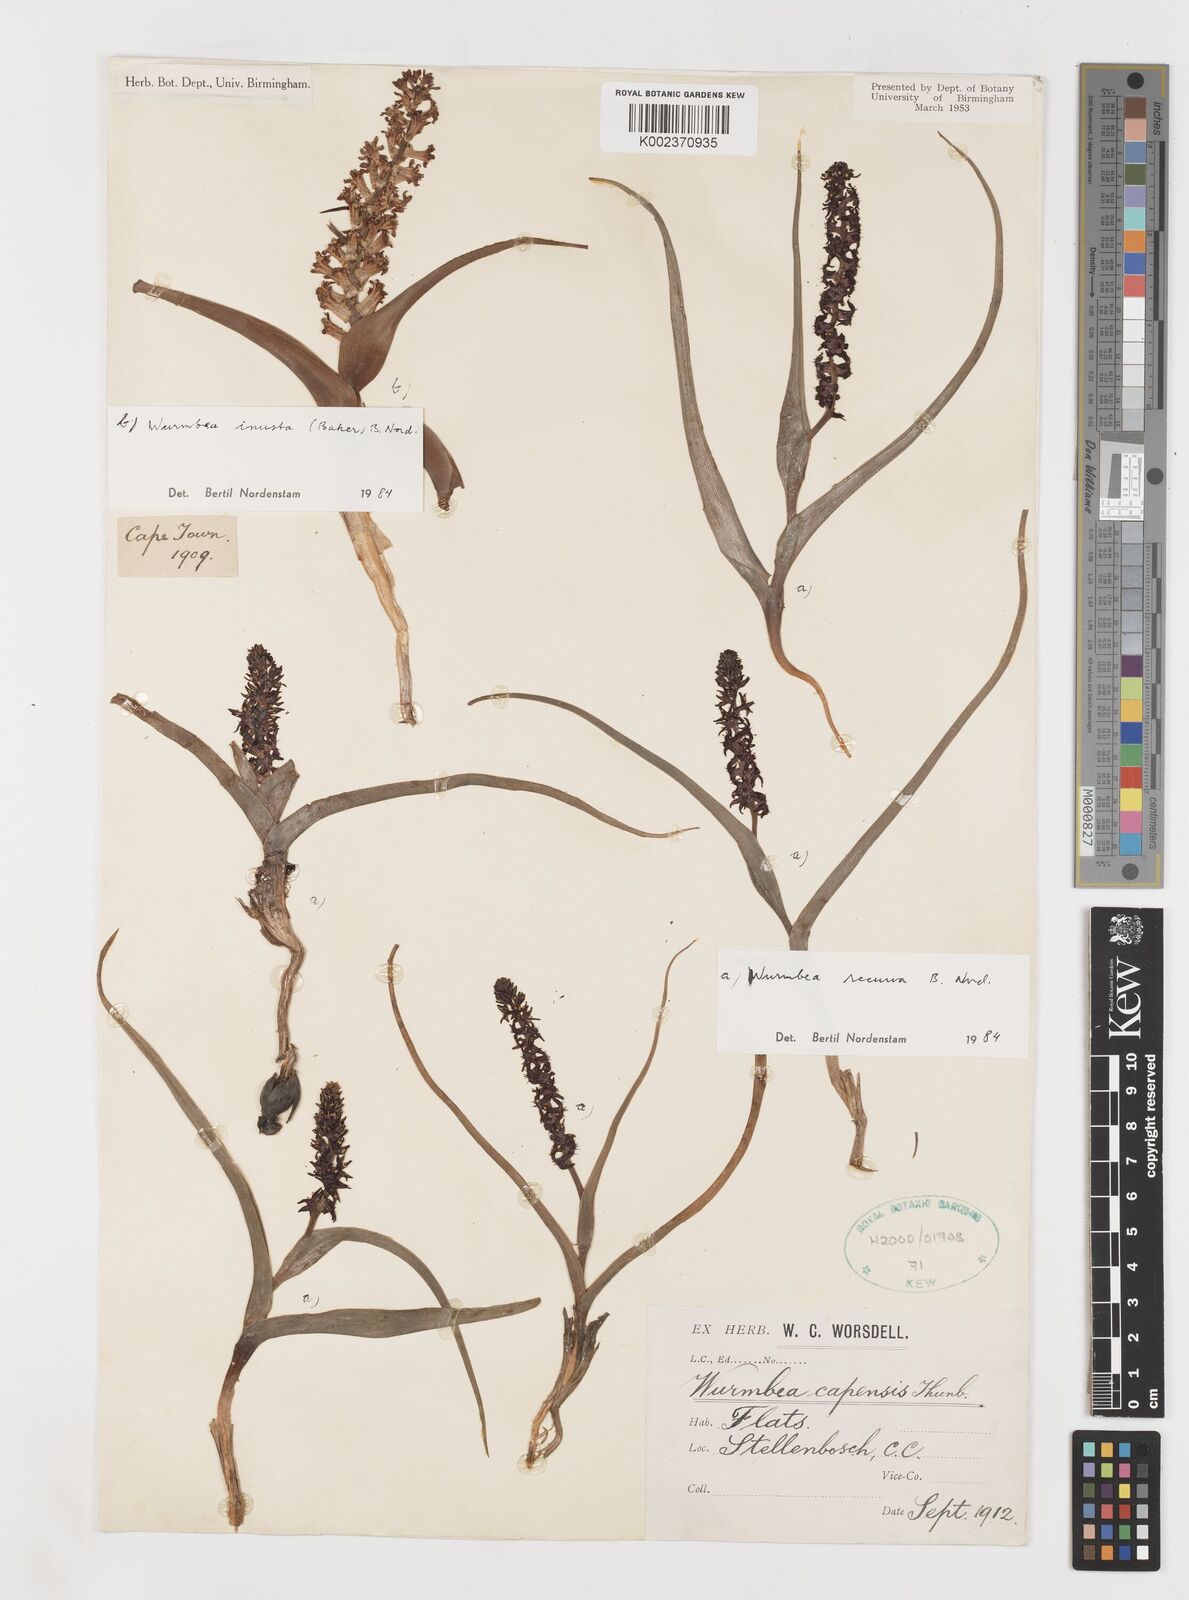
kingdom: Plantae
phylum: Tracheophyta
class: Liliopsida
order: Liliales
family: Colchicaceae
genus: Wurmbea
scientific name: Wurmbea recurva
